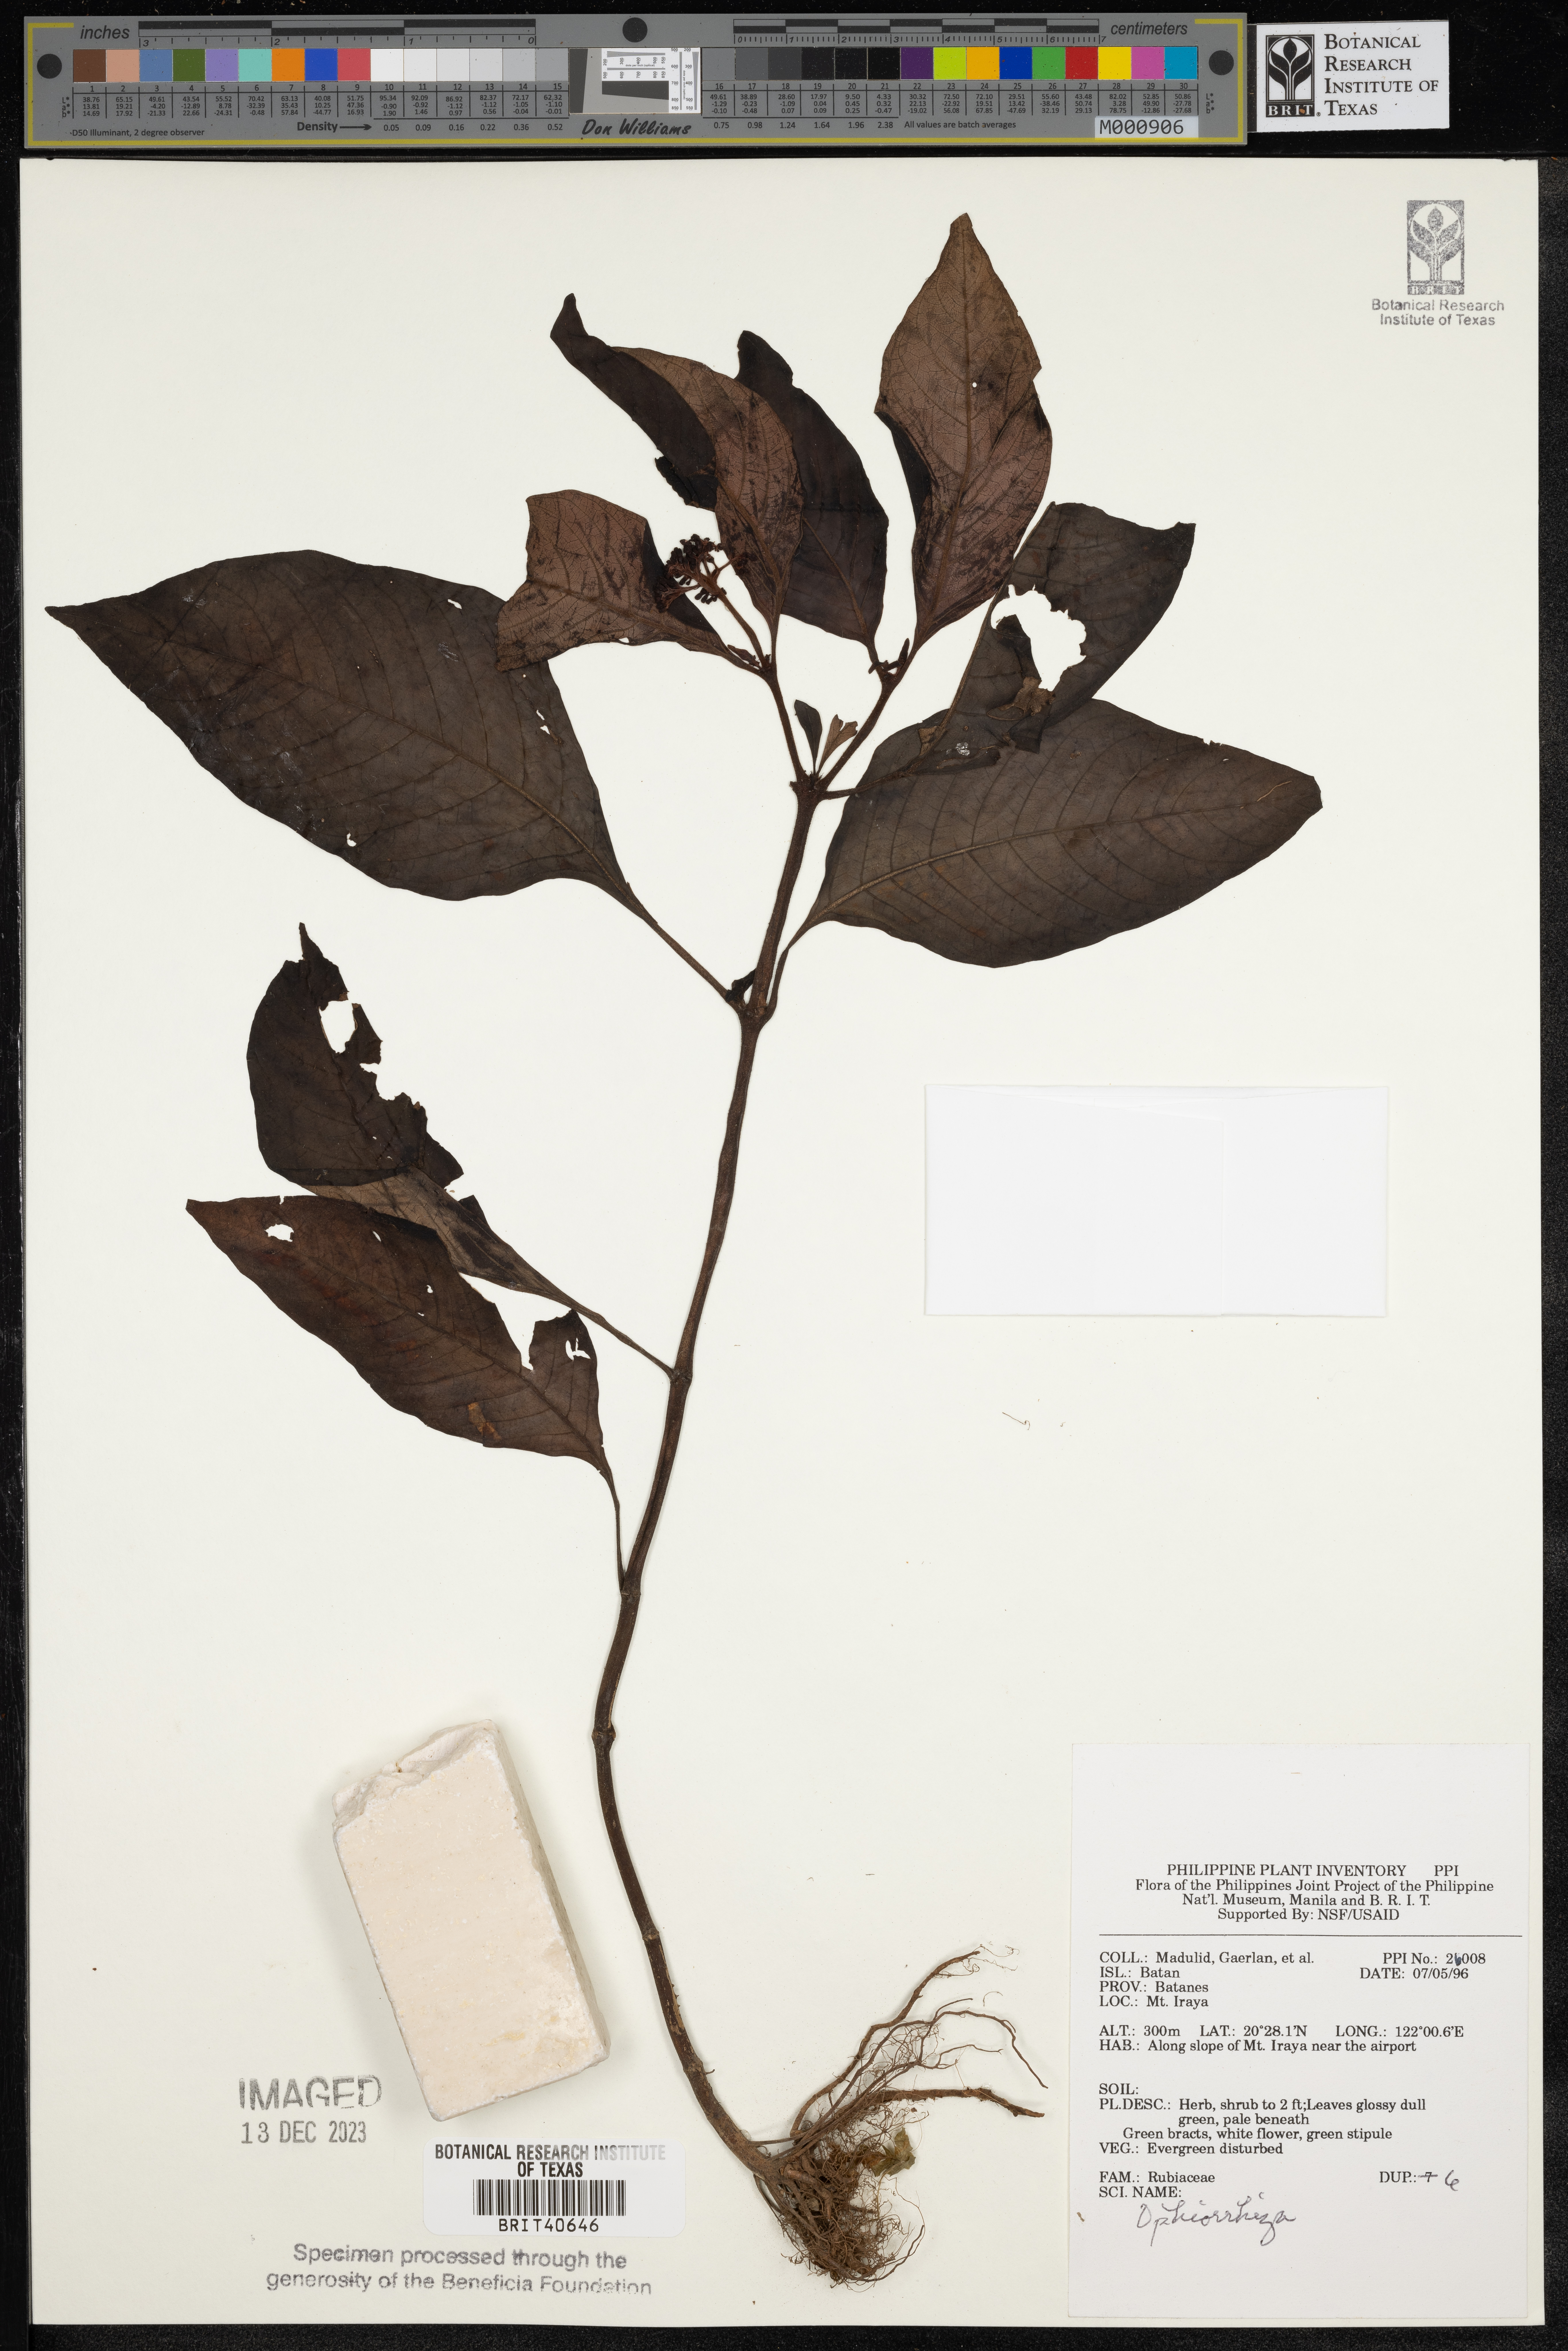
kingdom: Plantae
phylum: Tracheophyta
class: Magnoliopsida
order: Gentianales
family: Rubiaceae
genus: Ophiorrhiza
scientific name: Ophiorrhiza
